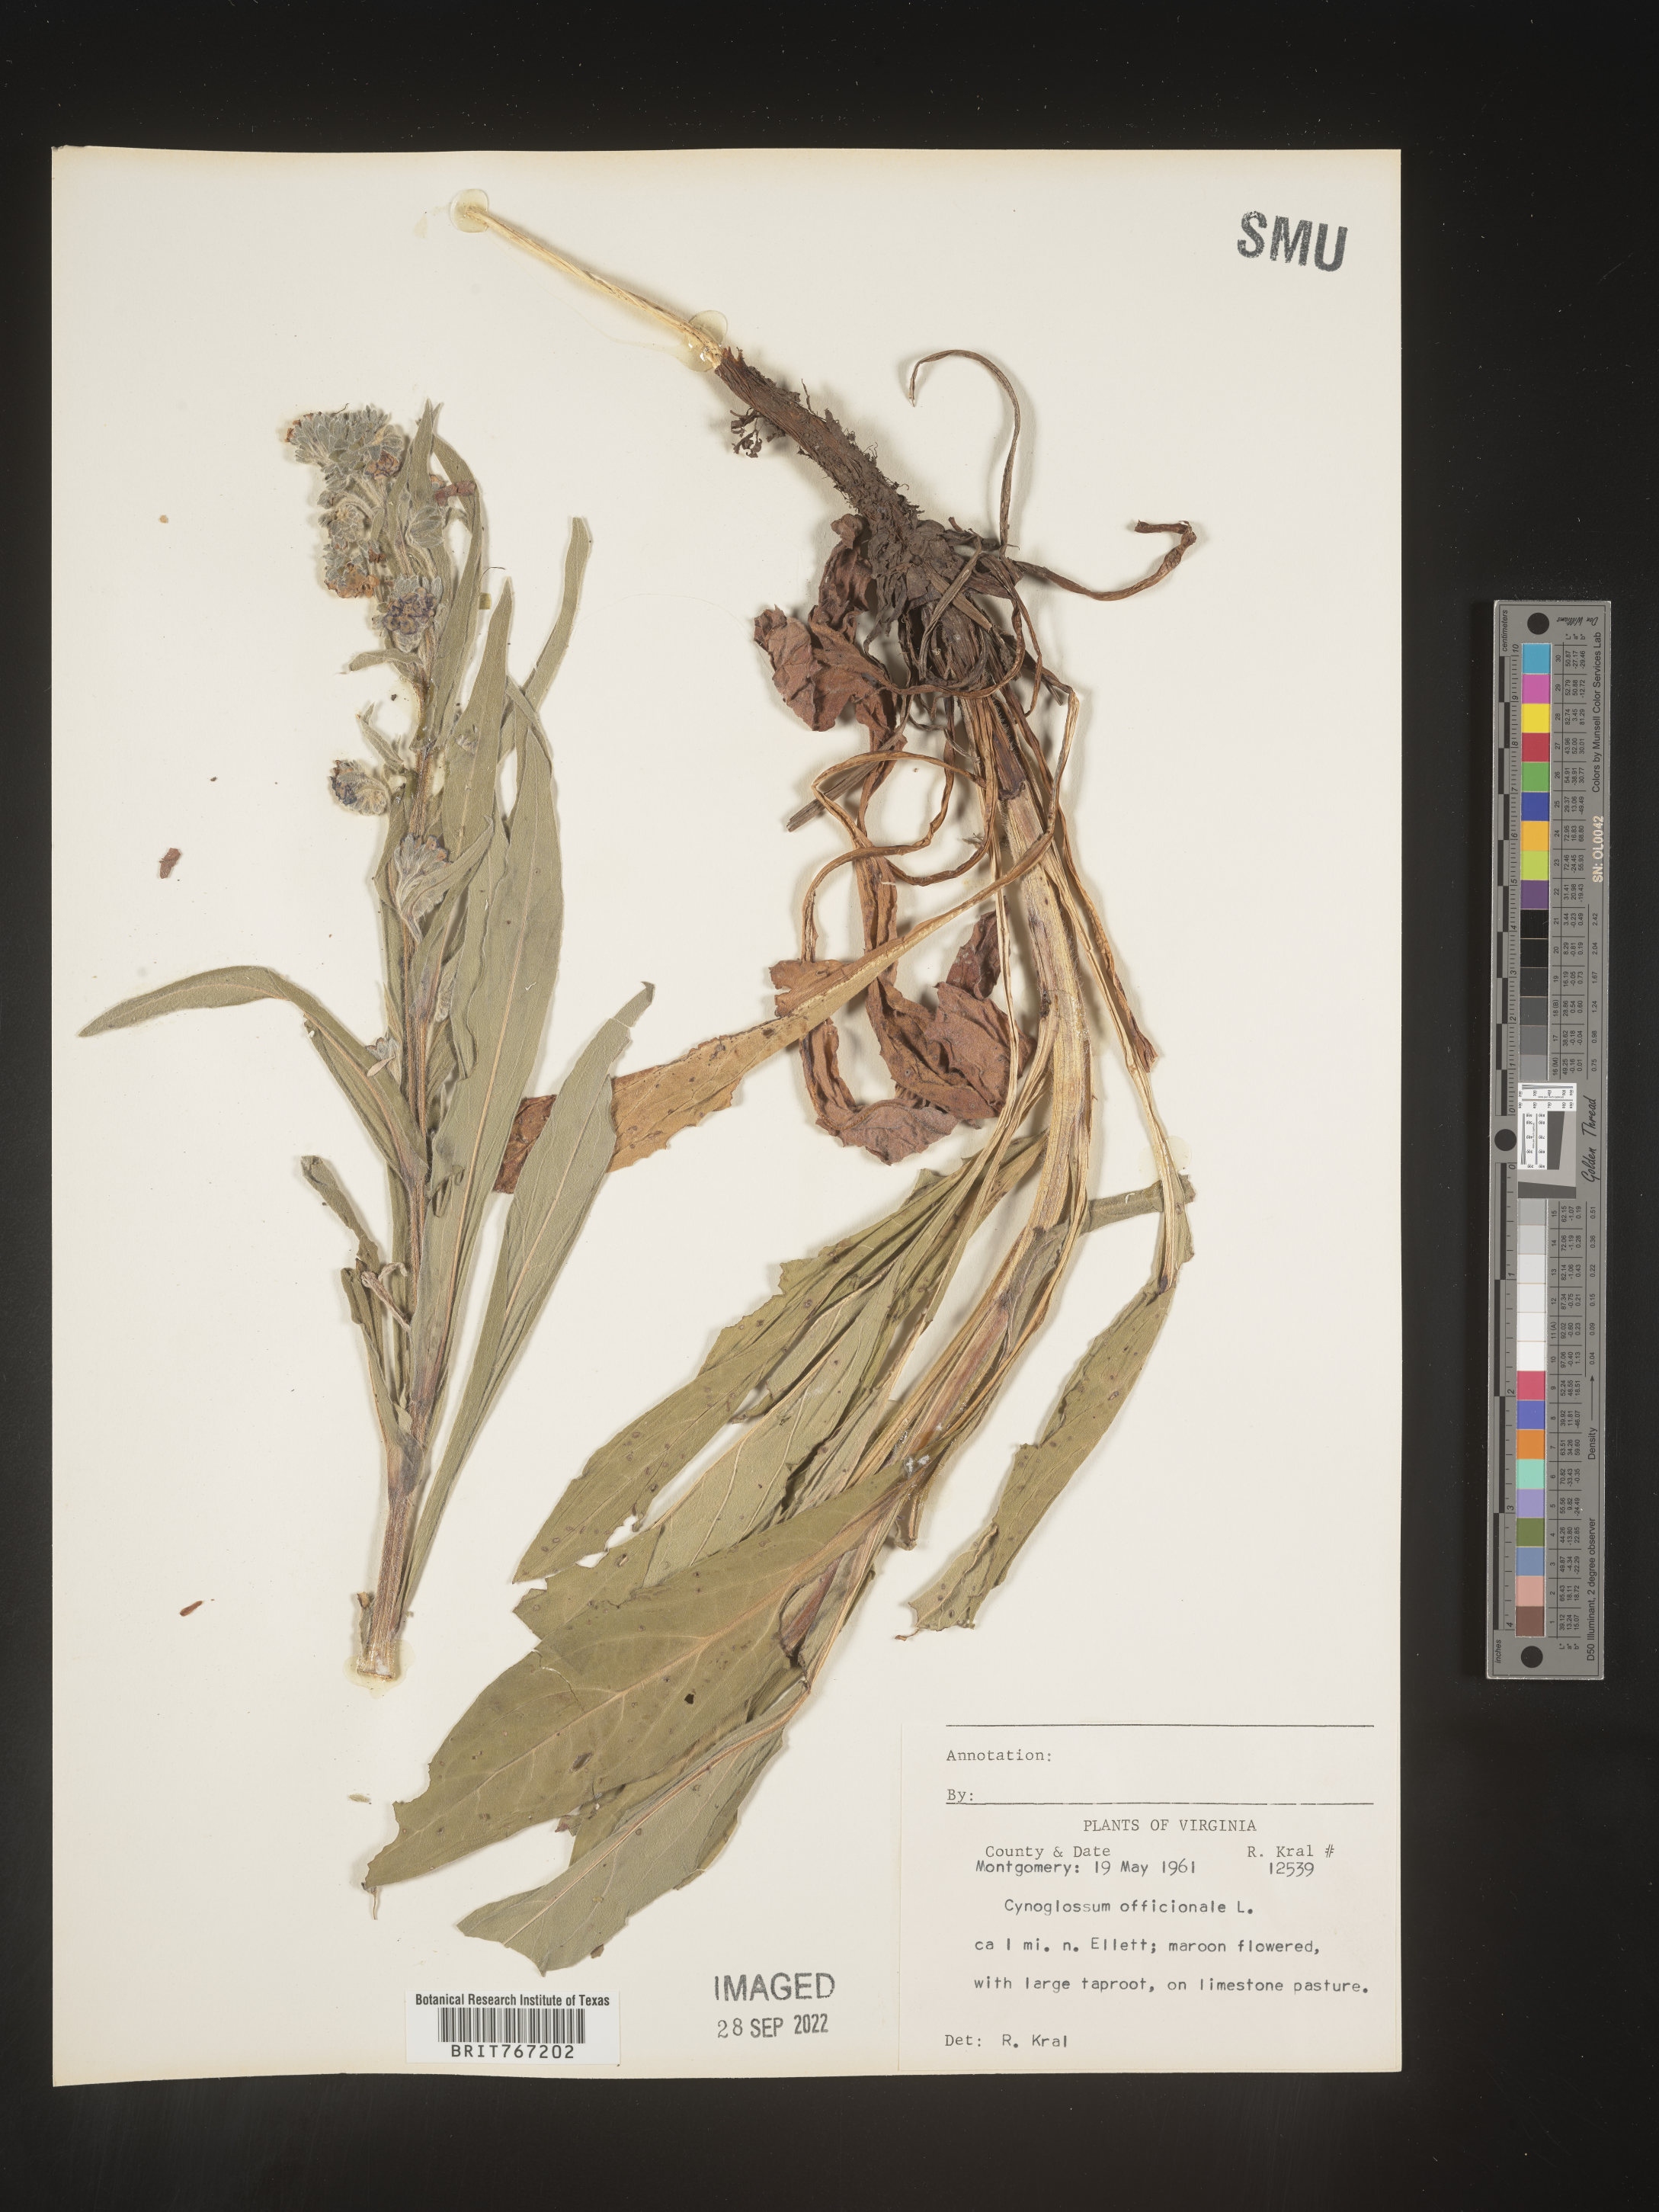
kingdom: Plantae
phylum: Tracheophyta
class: Magnoliopsida
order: Boraginales
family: Boraginaceae
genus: Cynoglossum
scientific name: Cynoglossum officinale
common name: Hound's-tongue
